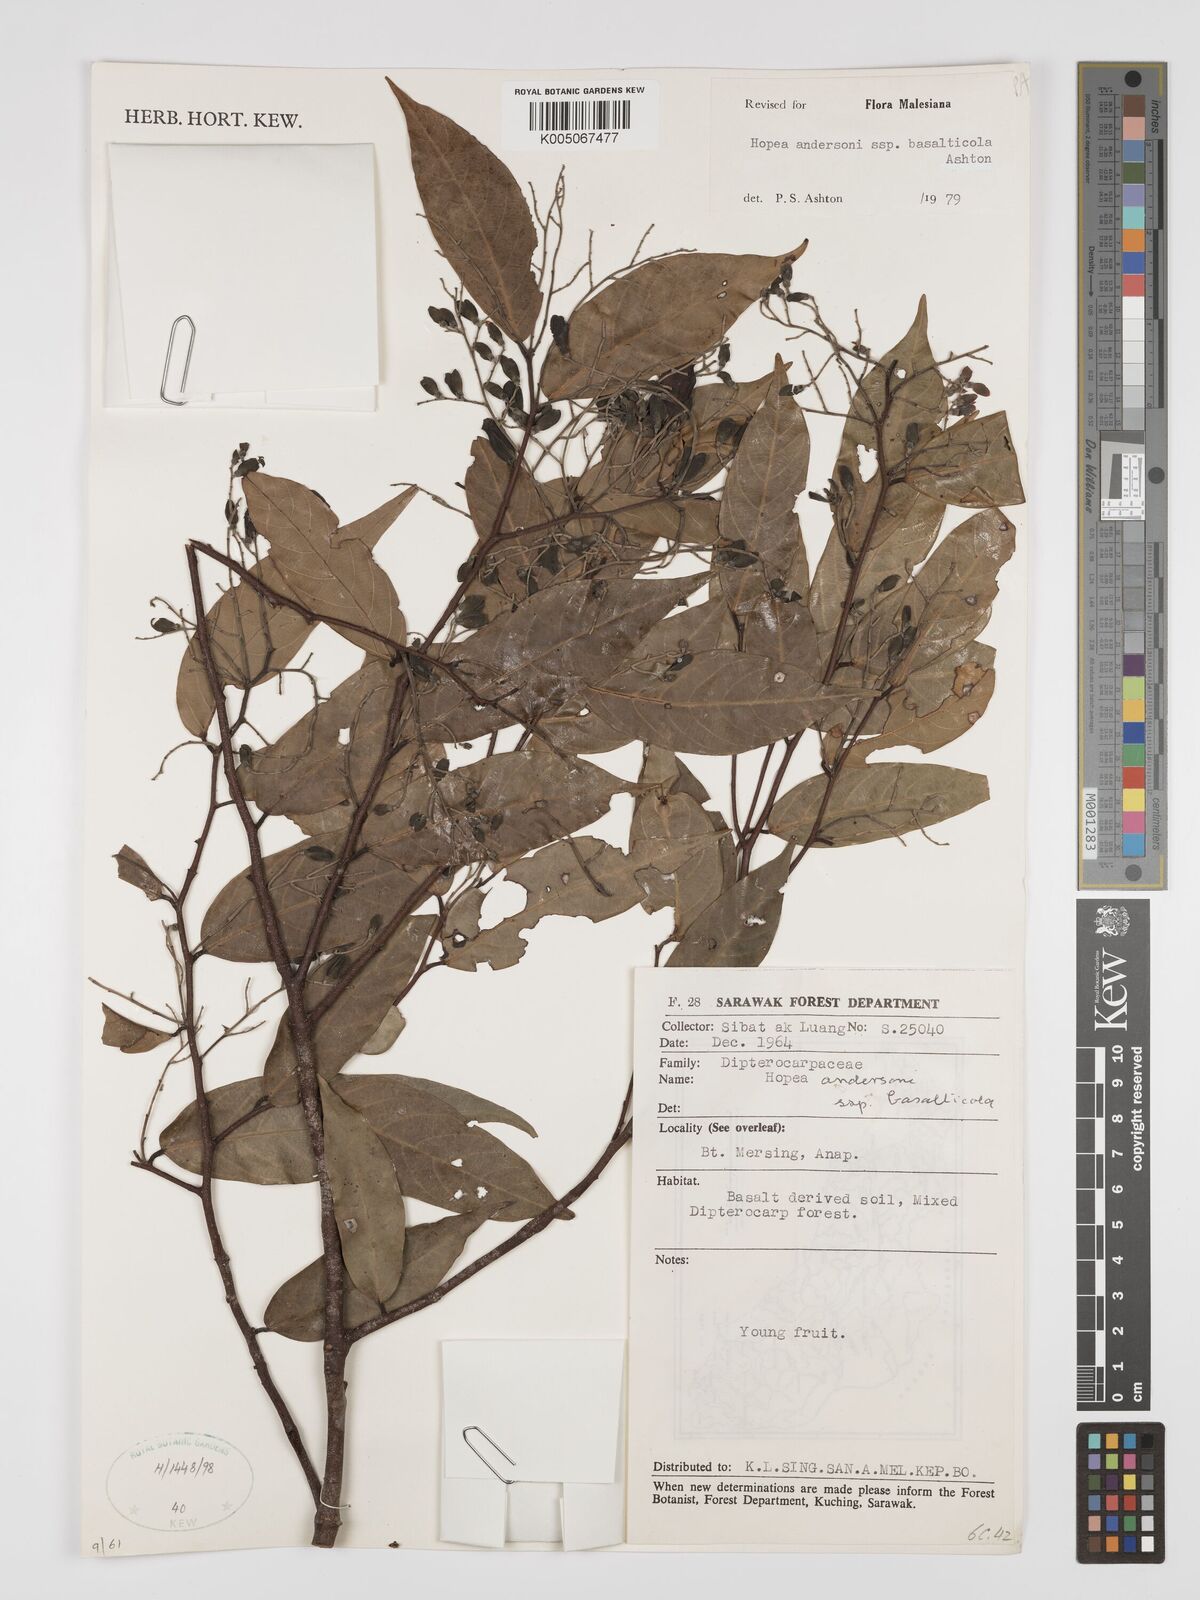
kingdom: Plantae
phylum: Tracheophyta
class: Magnoliopsida
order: Malvales
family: Dipterocarpaceae
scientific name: Dipterocarpaceae
